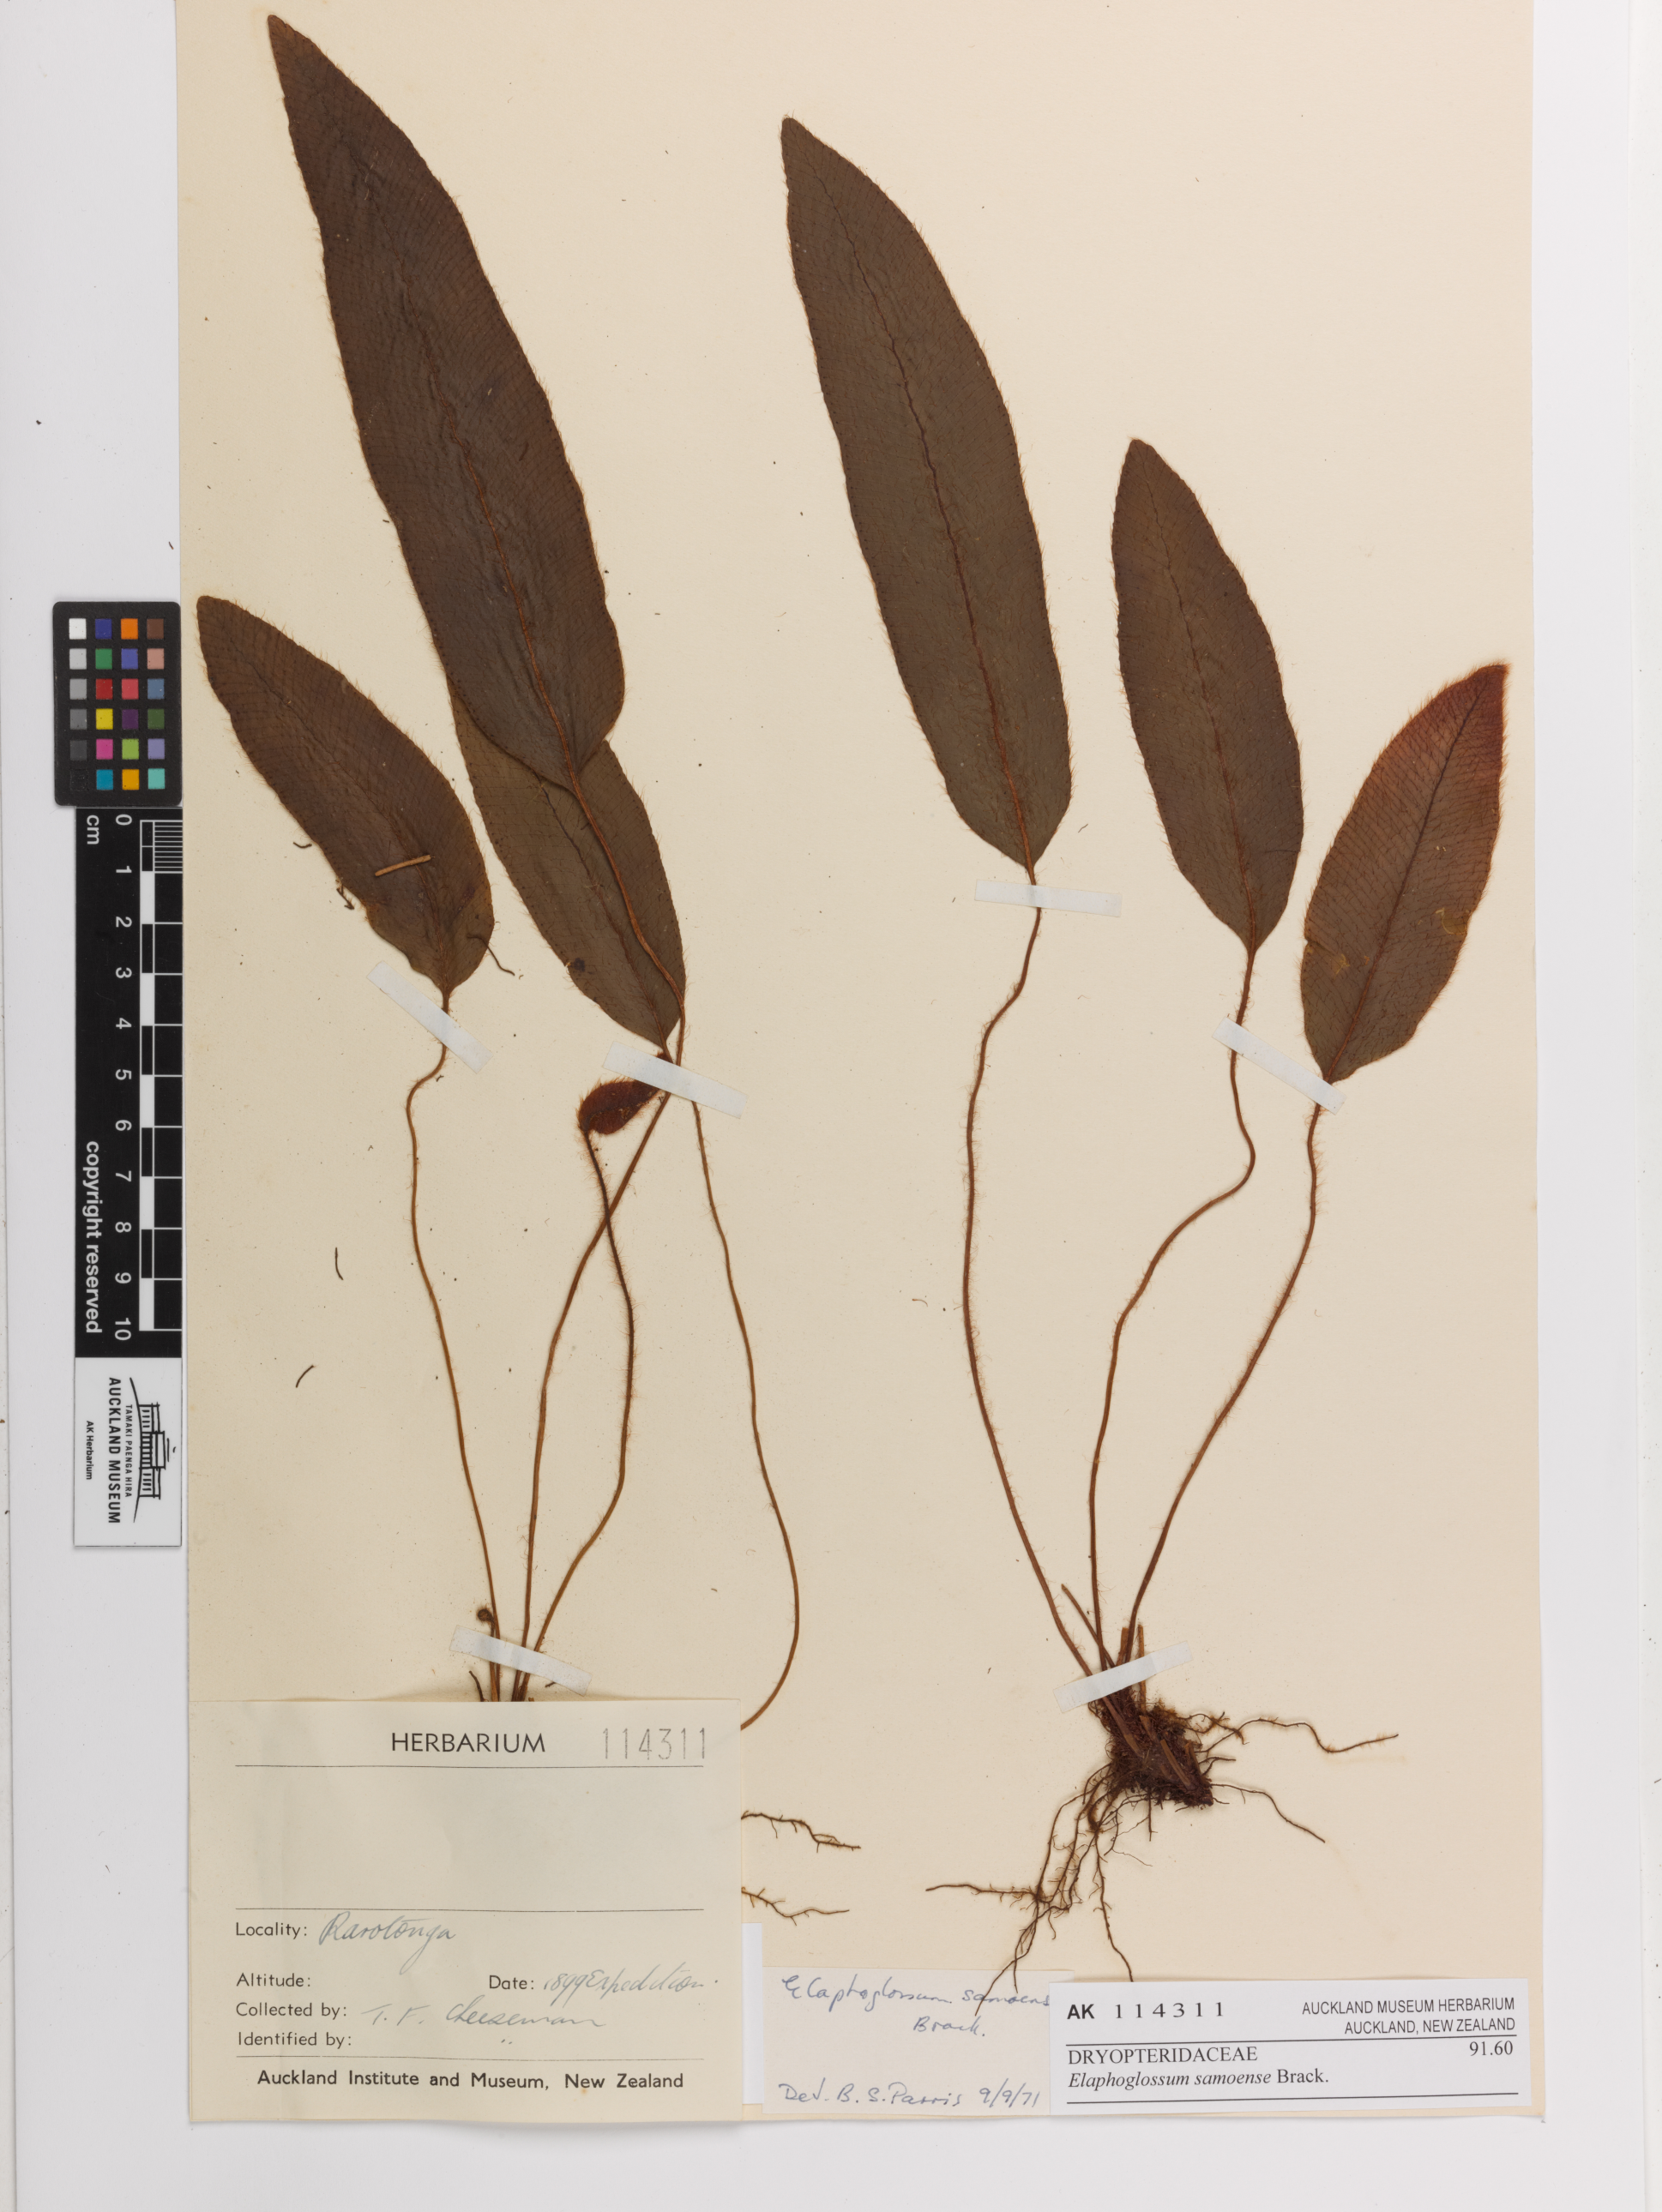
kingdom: Plantae
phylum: Tracheophyta
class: Polypodiopsida
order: Polypodiales
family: Dryopteridaceae
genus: Elaphoglossum
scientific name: Elaphoglossum samoense
